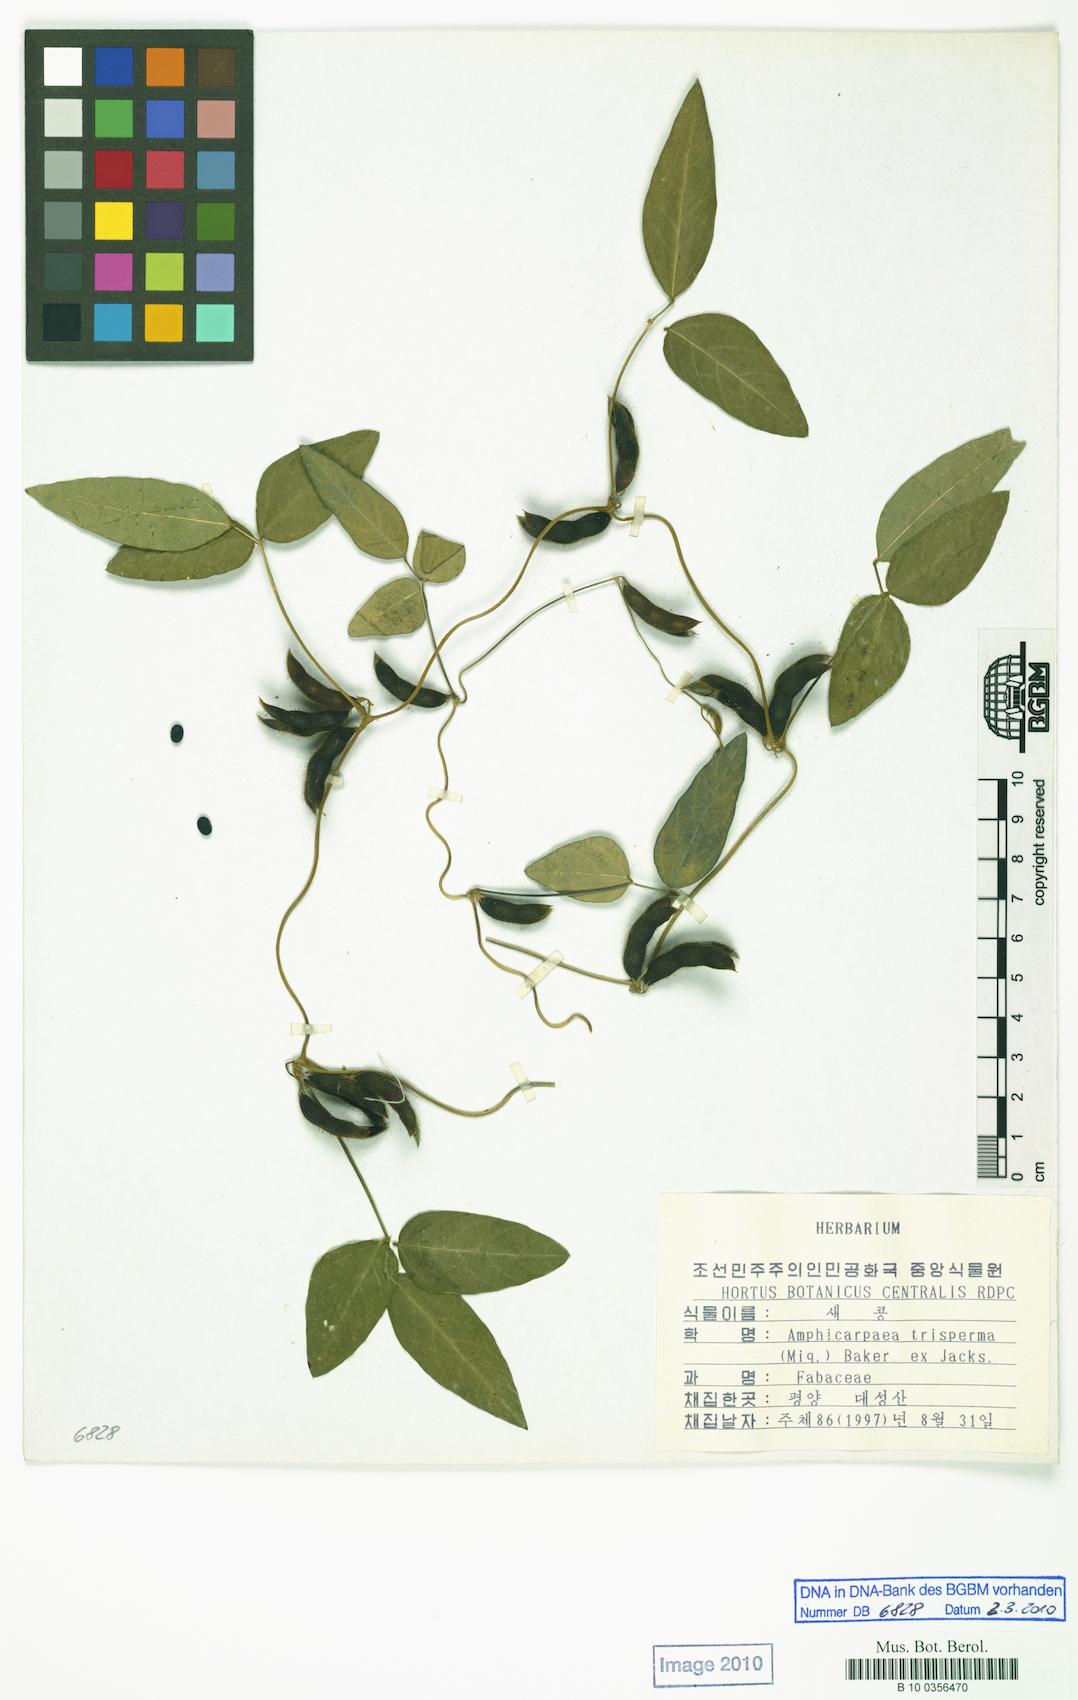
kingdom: Plantae
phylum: Tracheophyta
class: Magnoliopsida
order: Fabales
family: Fabaceae
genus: Amphicarpaea
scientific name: Amphicarpaea edgeworthii
